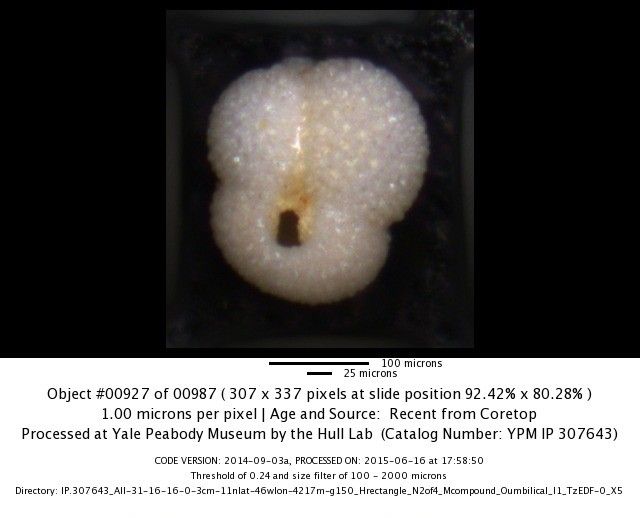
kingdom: Chromista
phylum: Foraminifera
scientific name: Foraminifera
